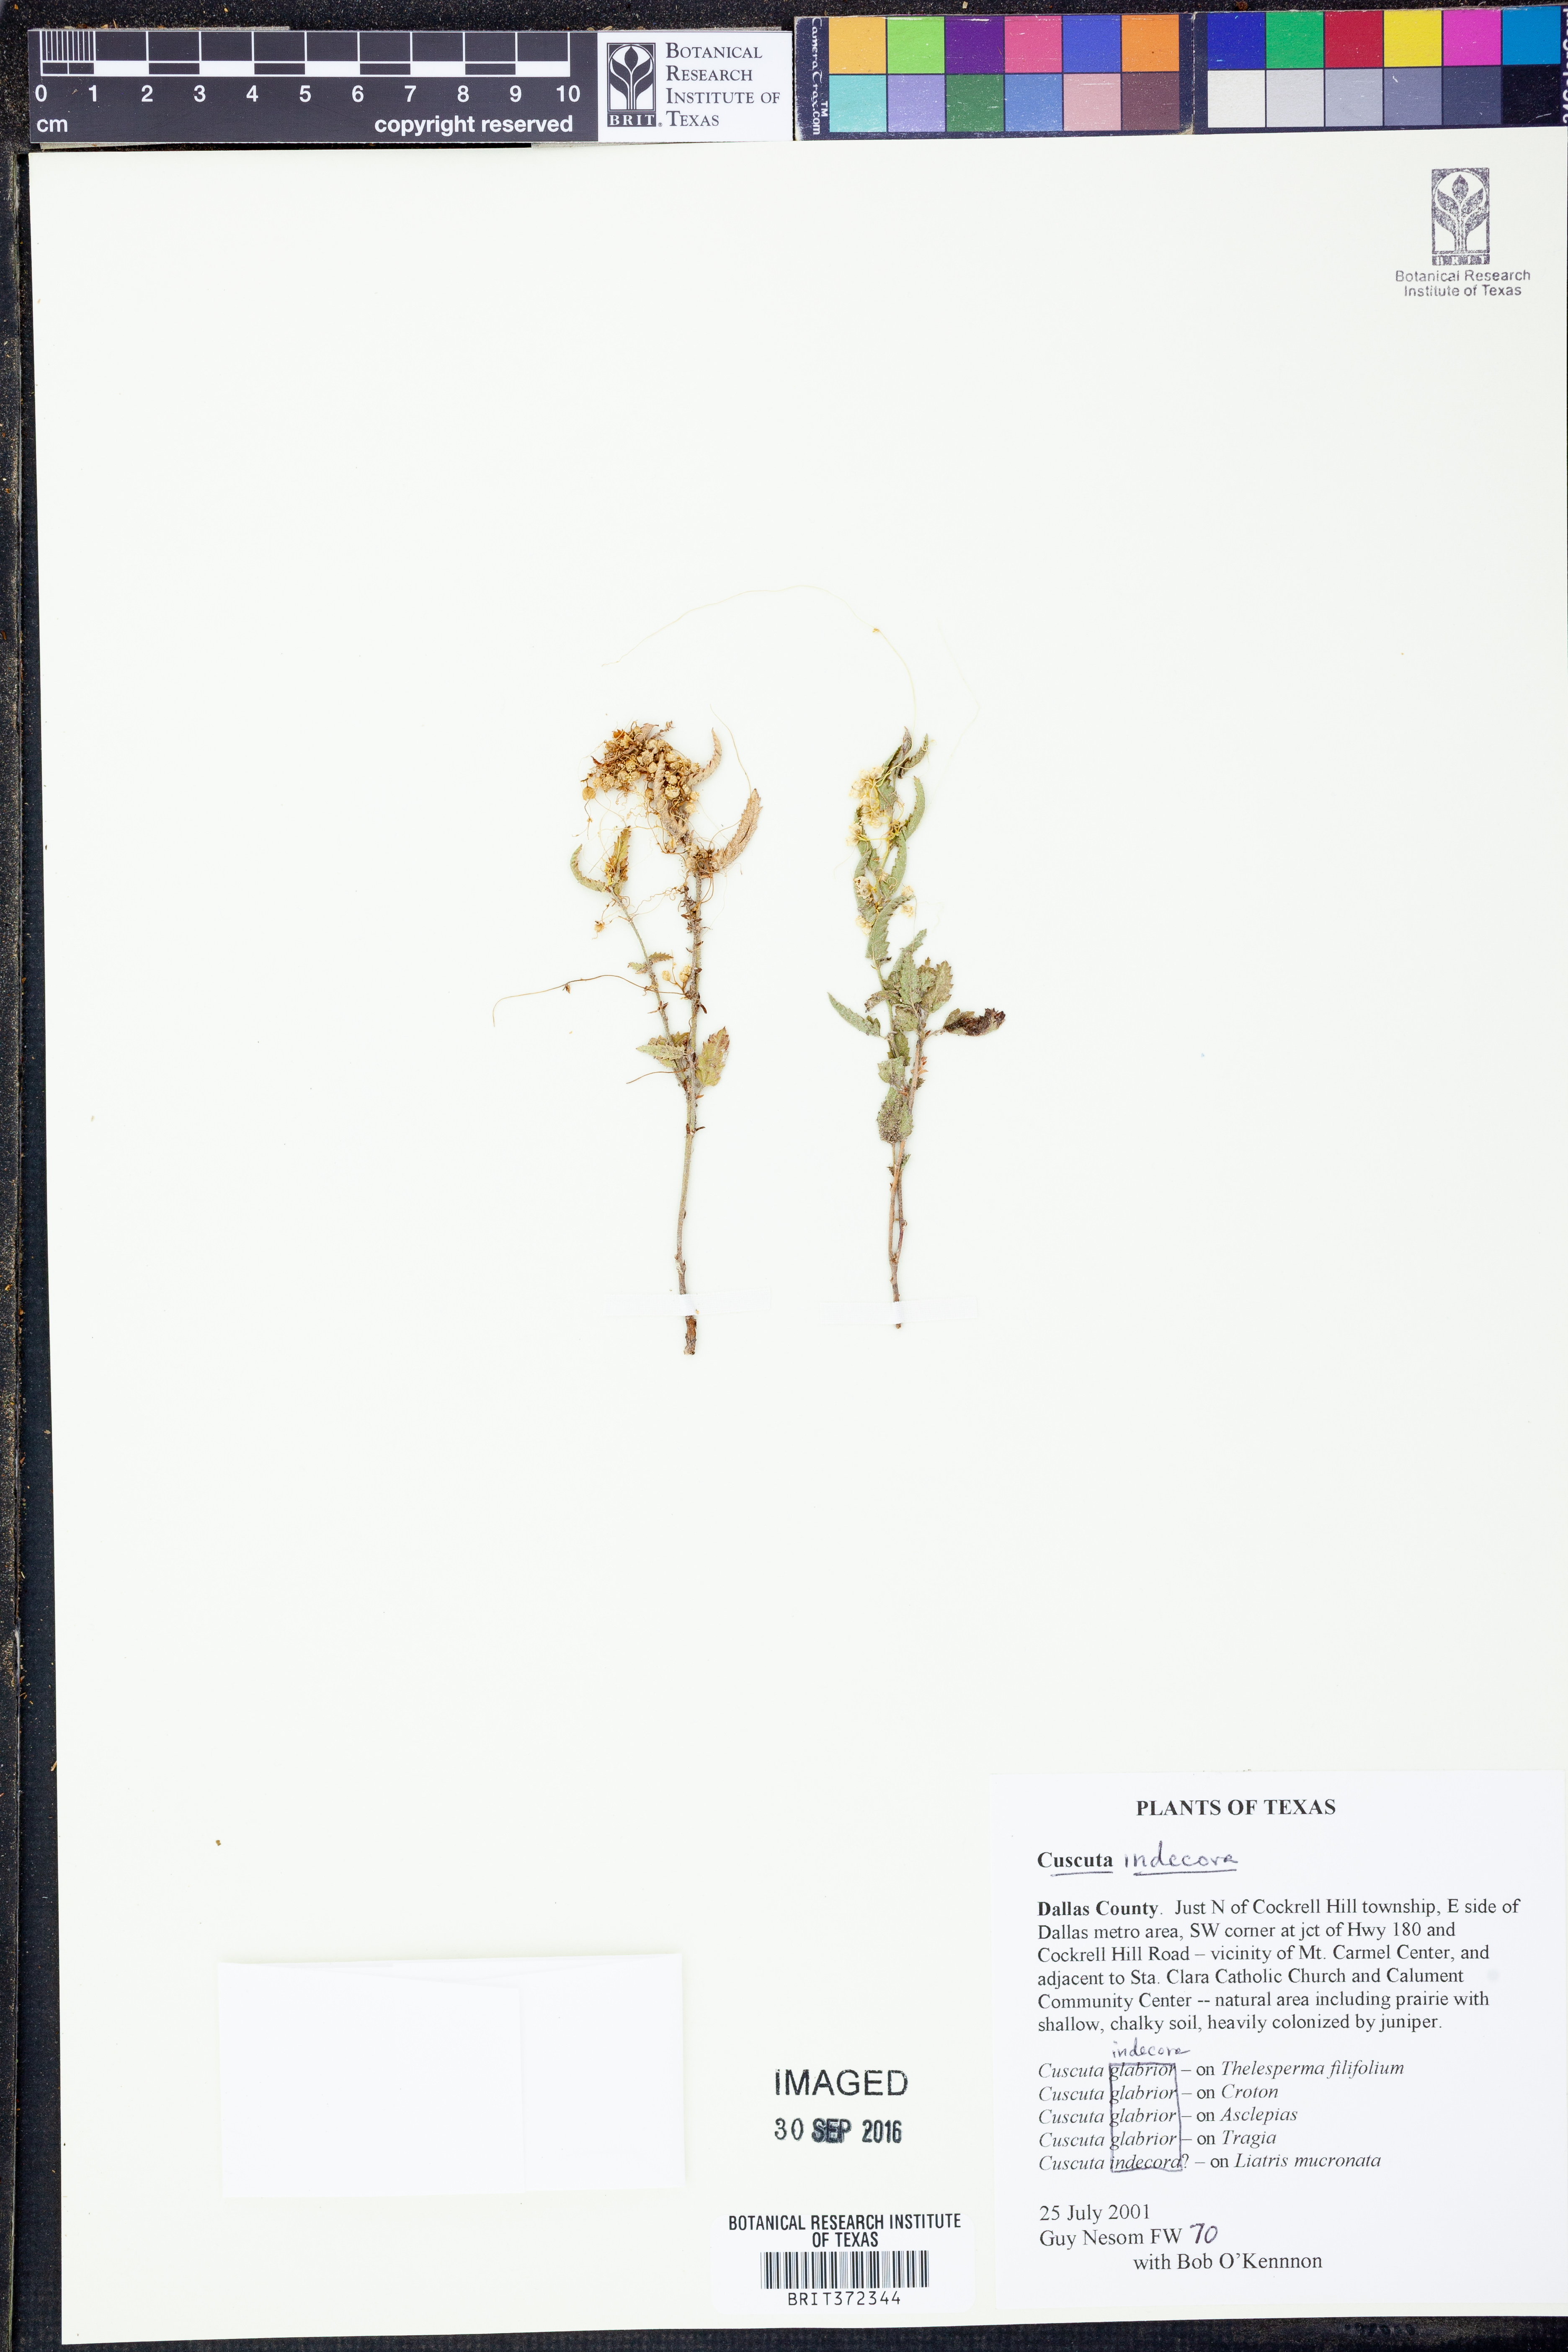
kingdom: Plantae
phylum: Tracheophyta
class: Magnoliopsida
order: Solanales
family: Convolvulaceae
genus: Cuscuta
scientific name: Cuscuta indecora
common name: Large-seed dodder
